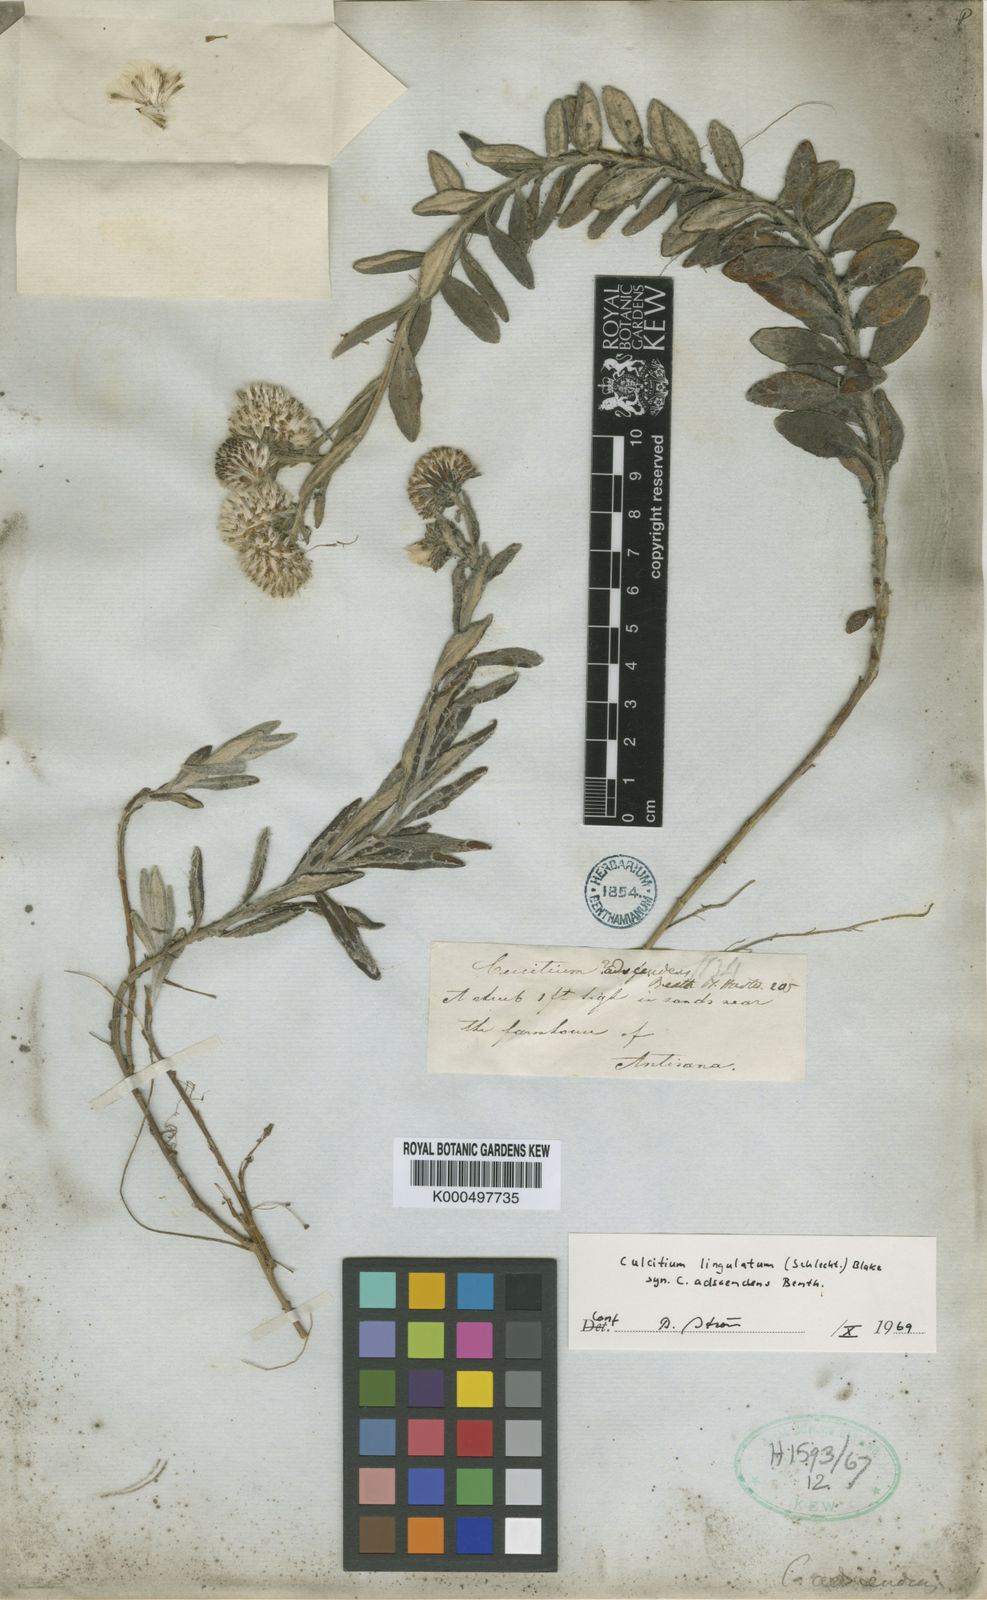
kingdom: Plantae
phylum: Tracheophyta
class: Magnoliopsida
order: Asterales
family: Asteraceae
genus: Lasiocephalus
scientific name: Lasiocephalus lingulatus
